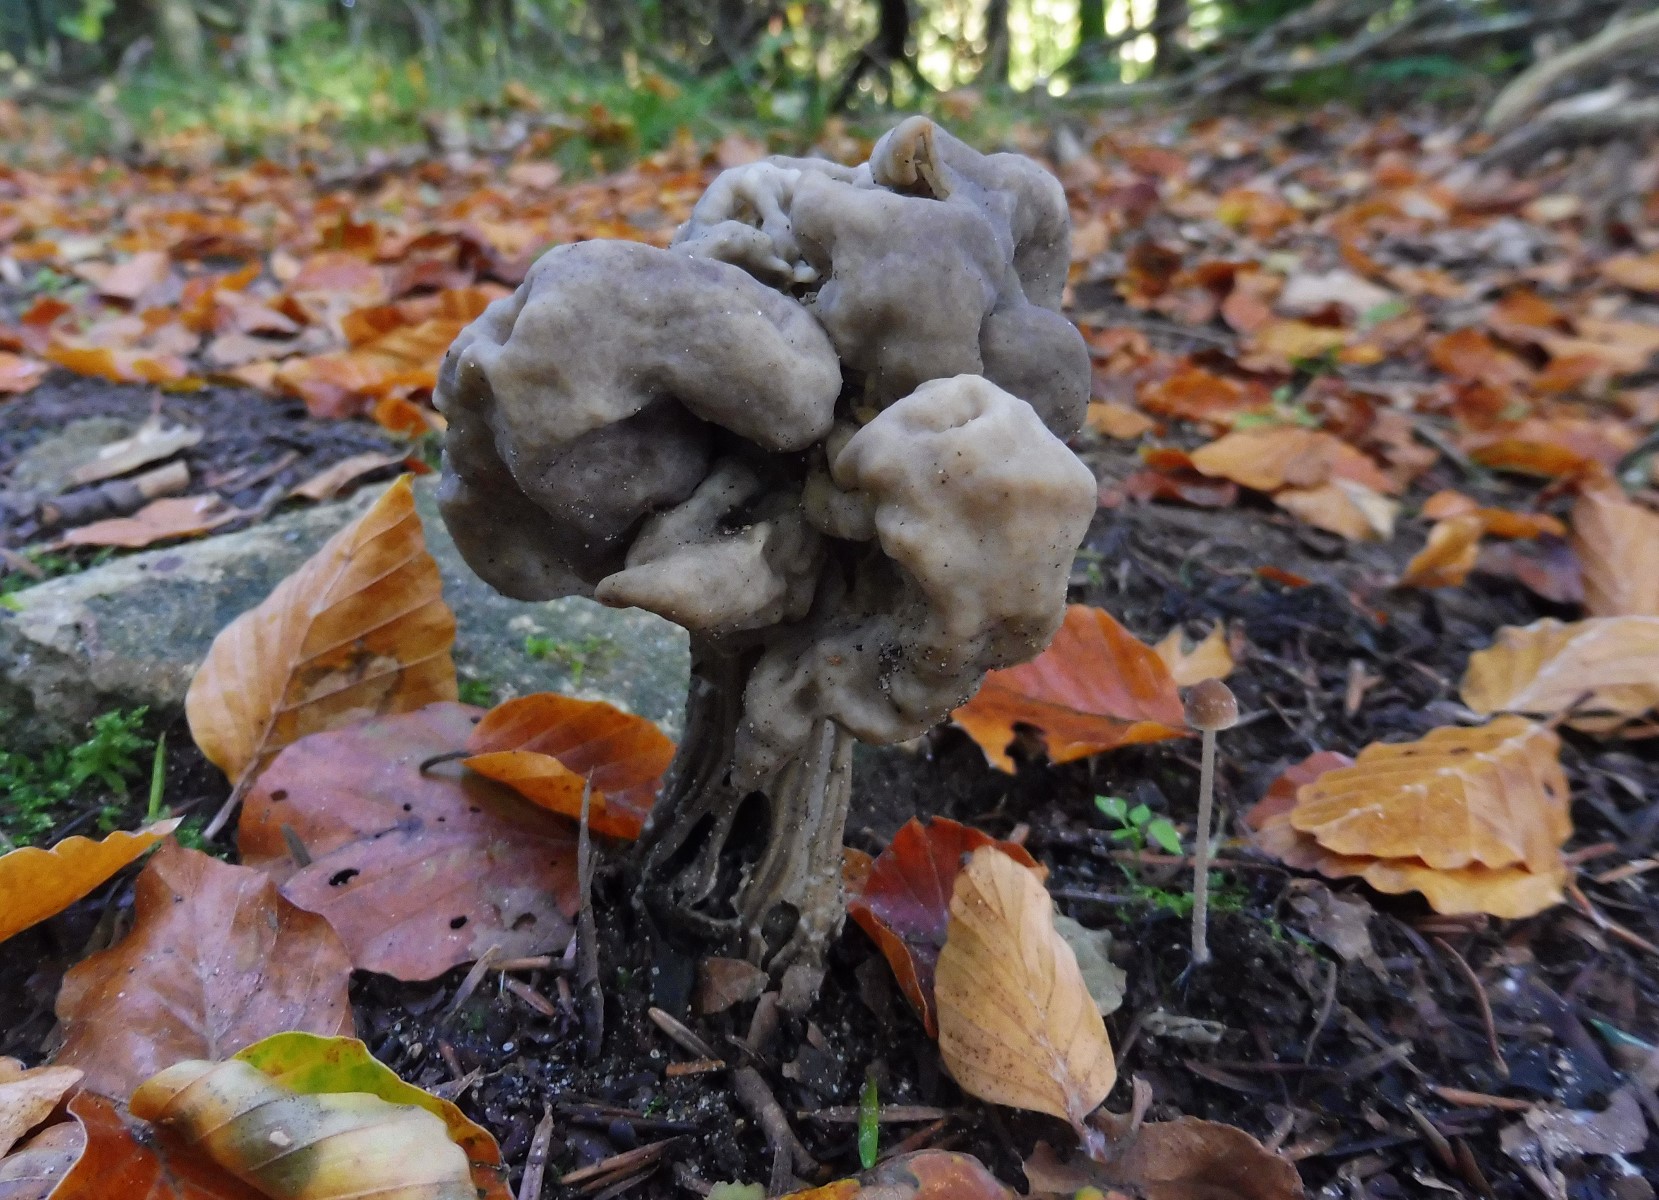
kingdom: Fungi
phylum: Ascomycota
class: Pezizomycetes
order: Pezizales
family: Helvellaceae
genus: Helvella
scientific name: Helvella lacunosa
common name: grubet foldhat
